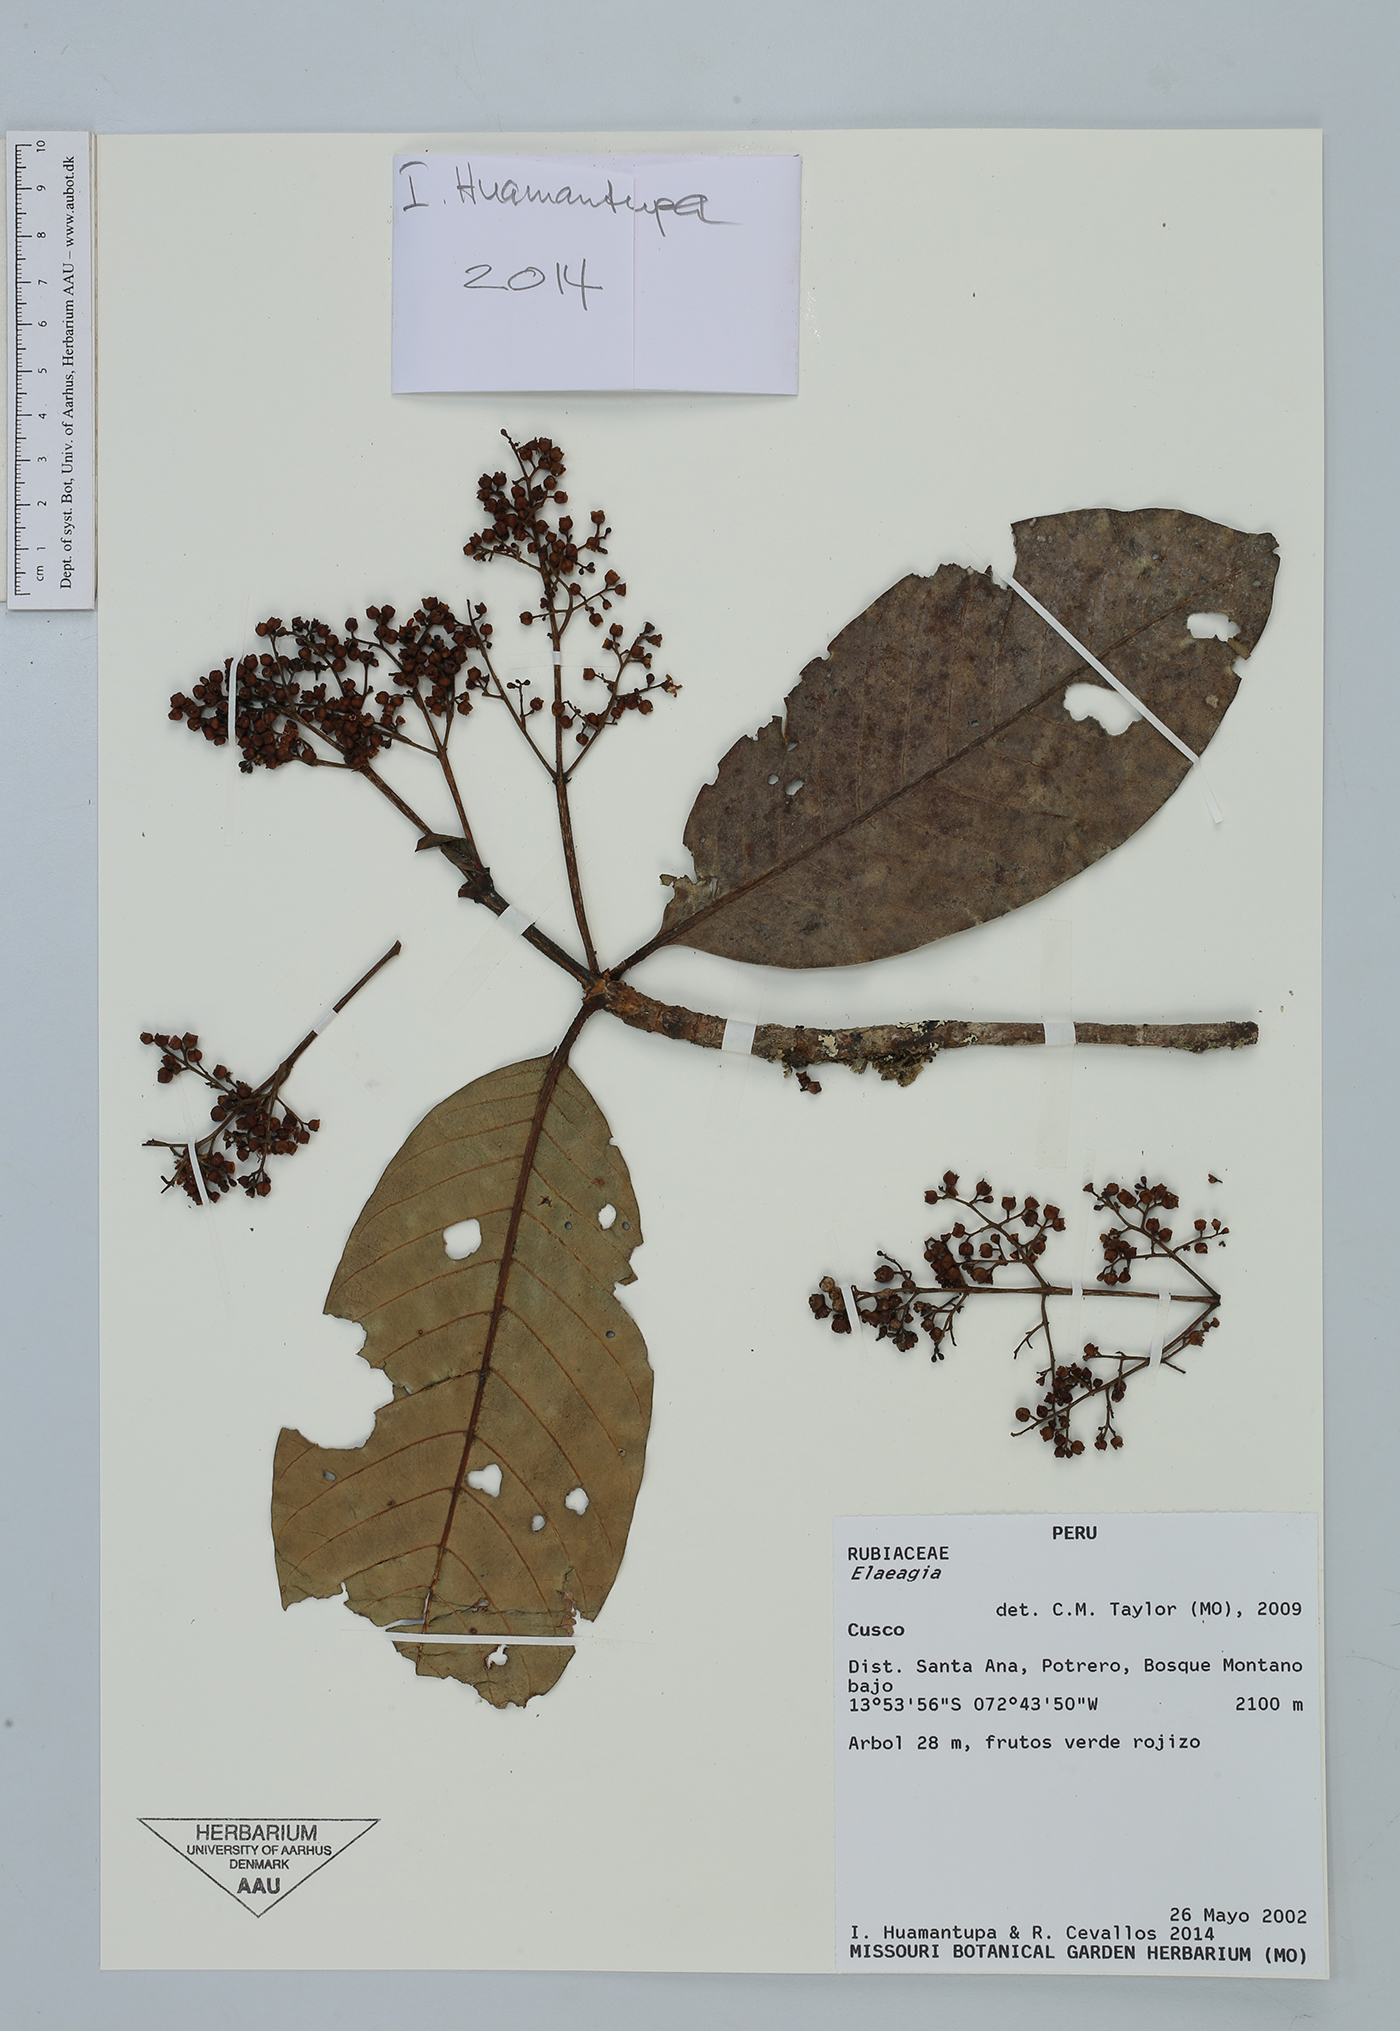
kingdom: Plantae
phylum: Tracheophyta
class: Magnoliopsida
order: Gentianales
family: Rubiaceae
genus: Elaeagia
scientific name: Elaeagia
